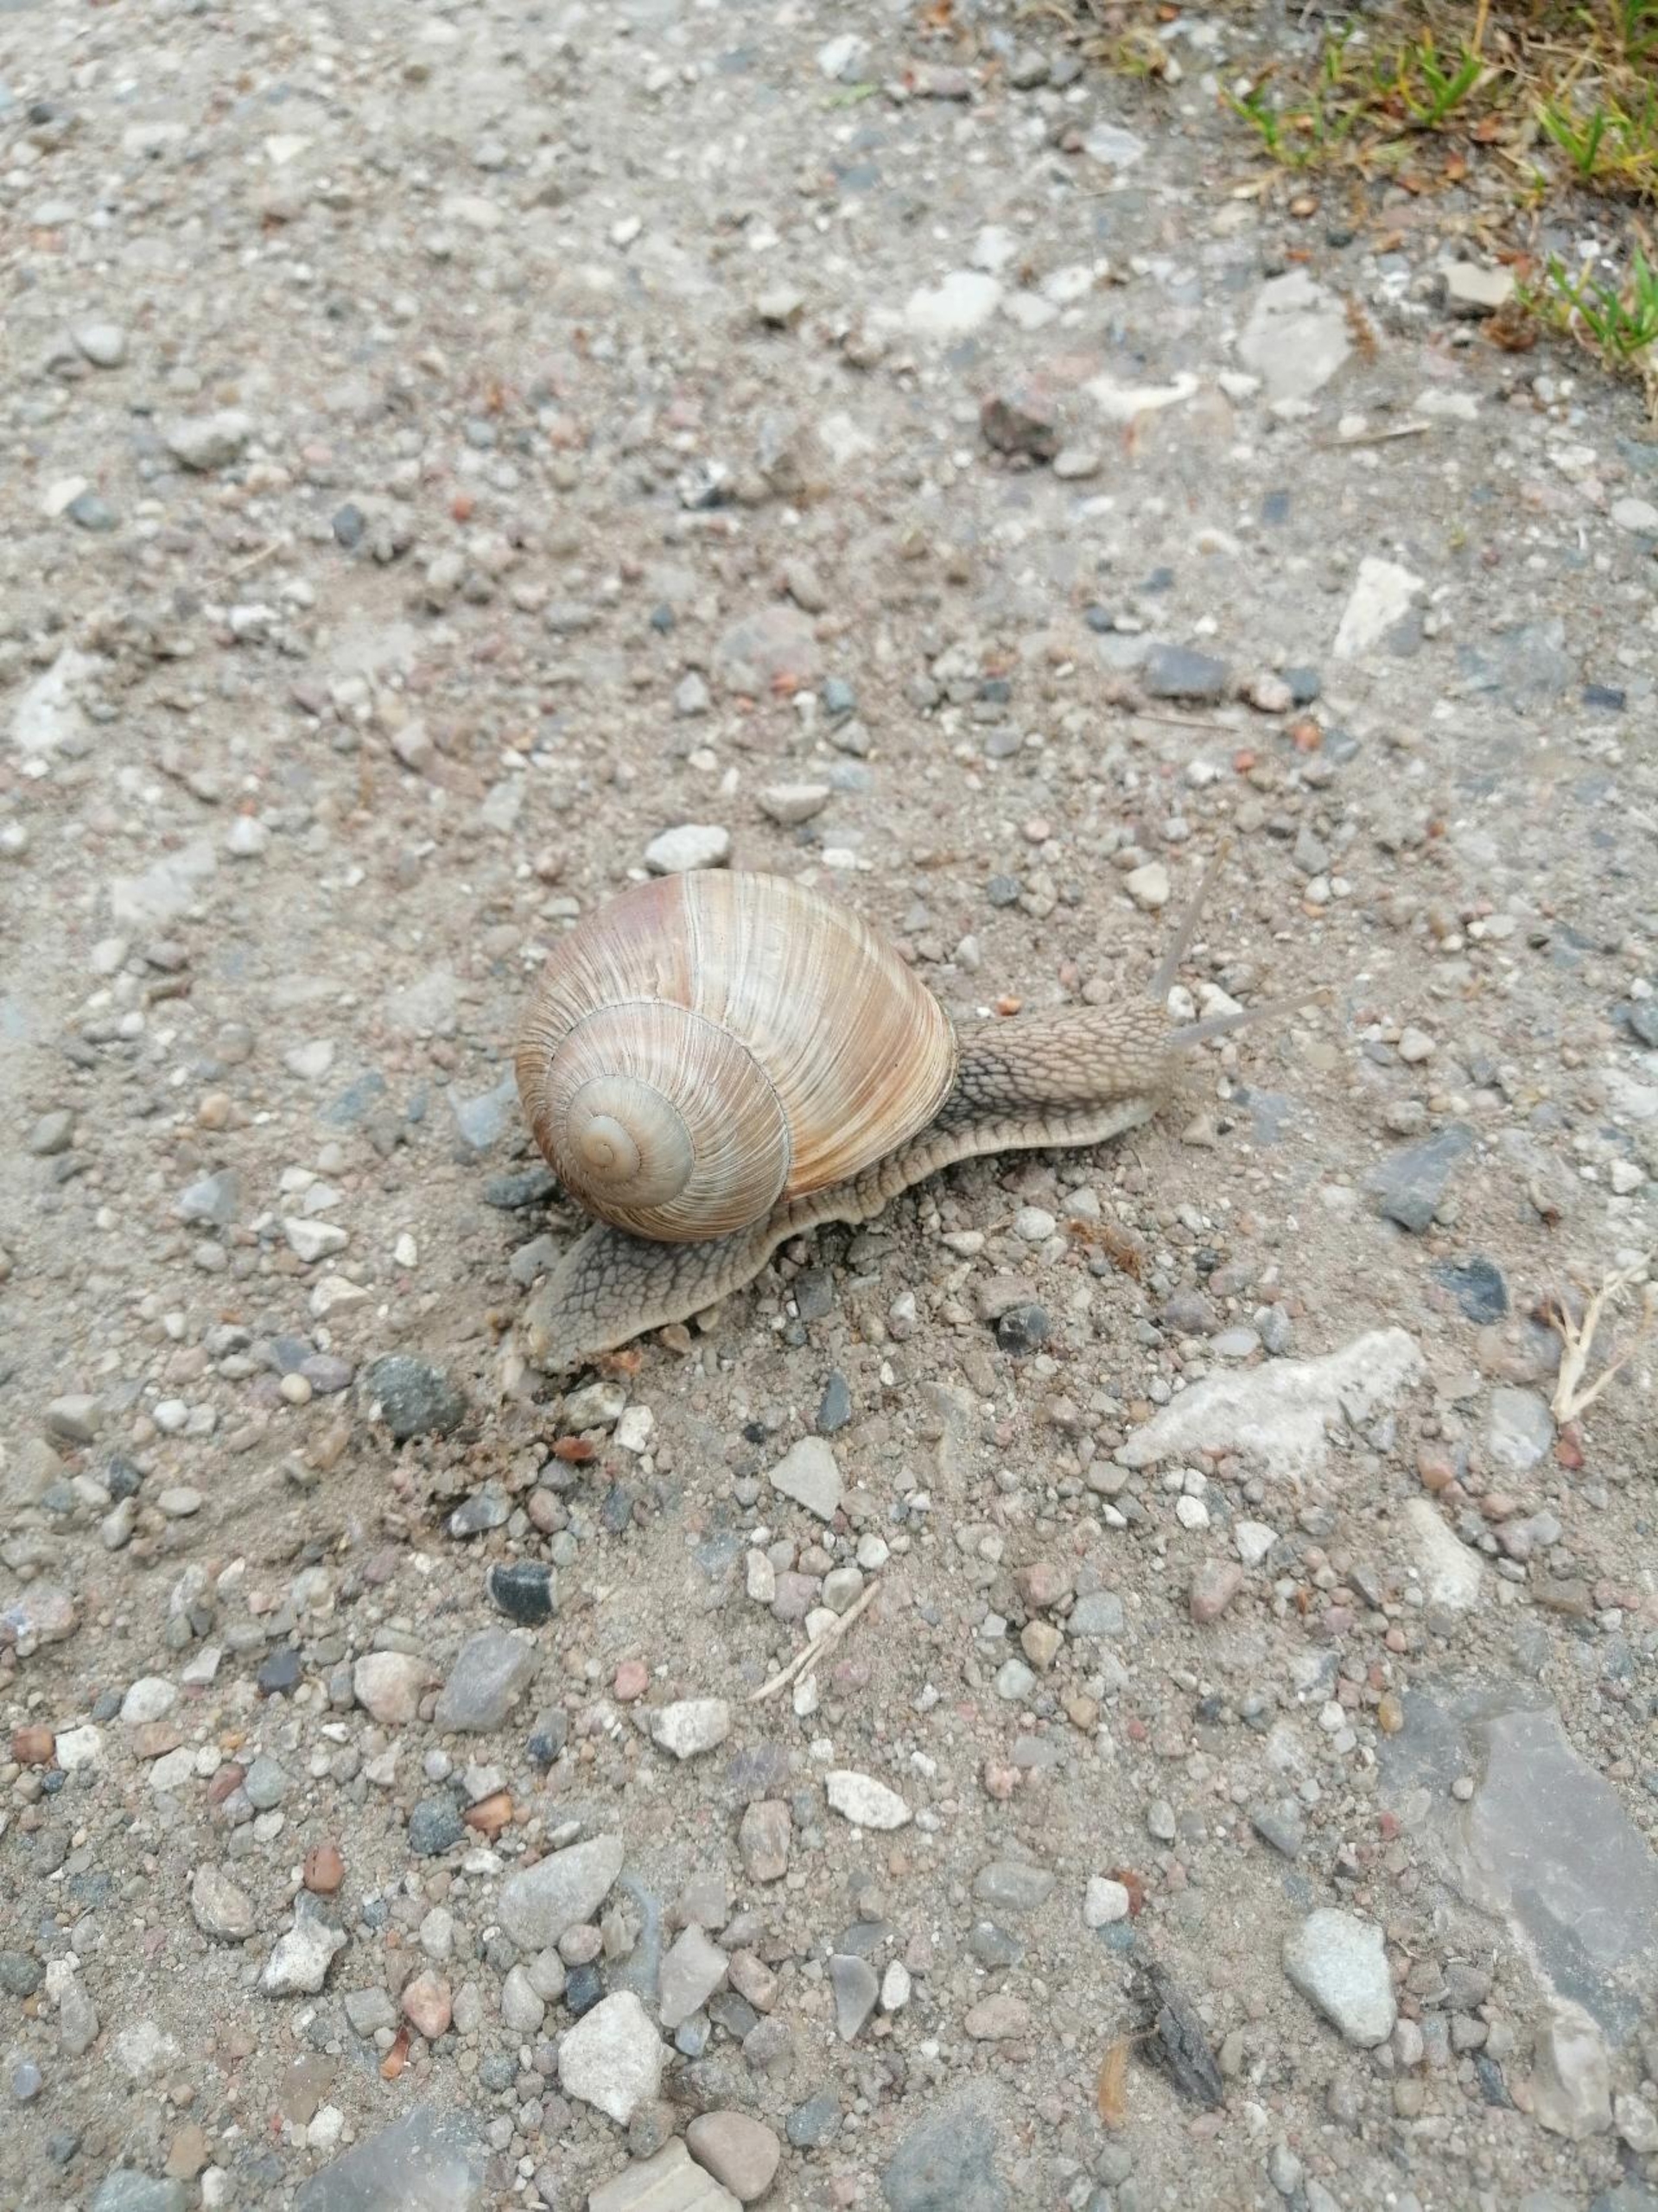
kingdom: Animalia
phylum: Mollusca
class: Gastropoda
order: Stylommatophora
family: Helicidae
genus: Helix
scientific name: Helix pomatia
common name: Vinbjergsnegl
